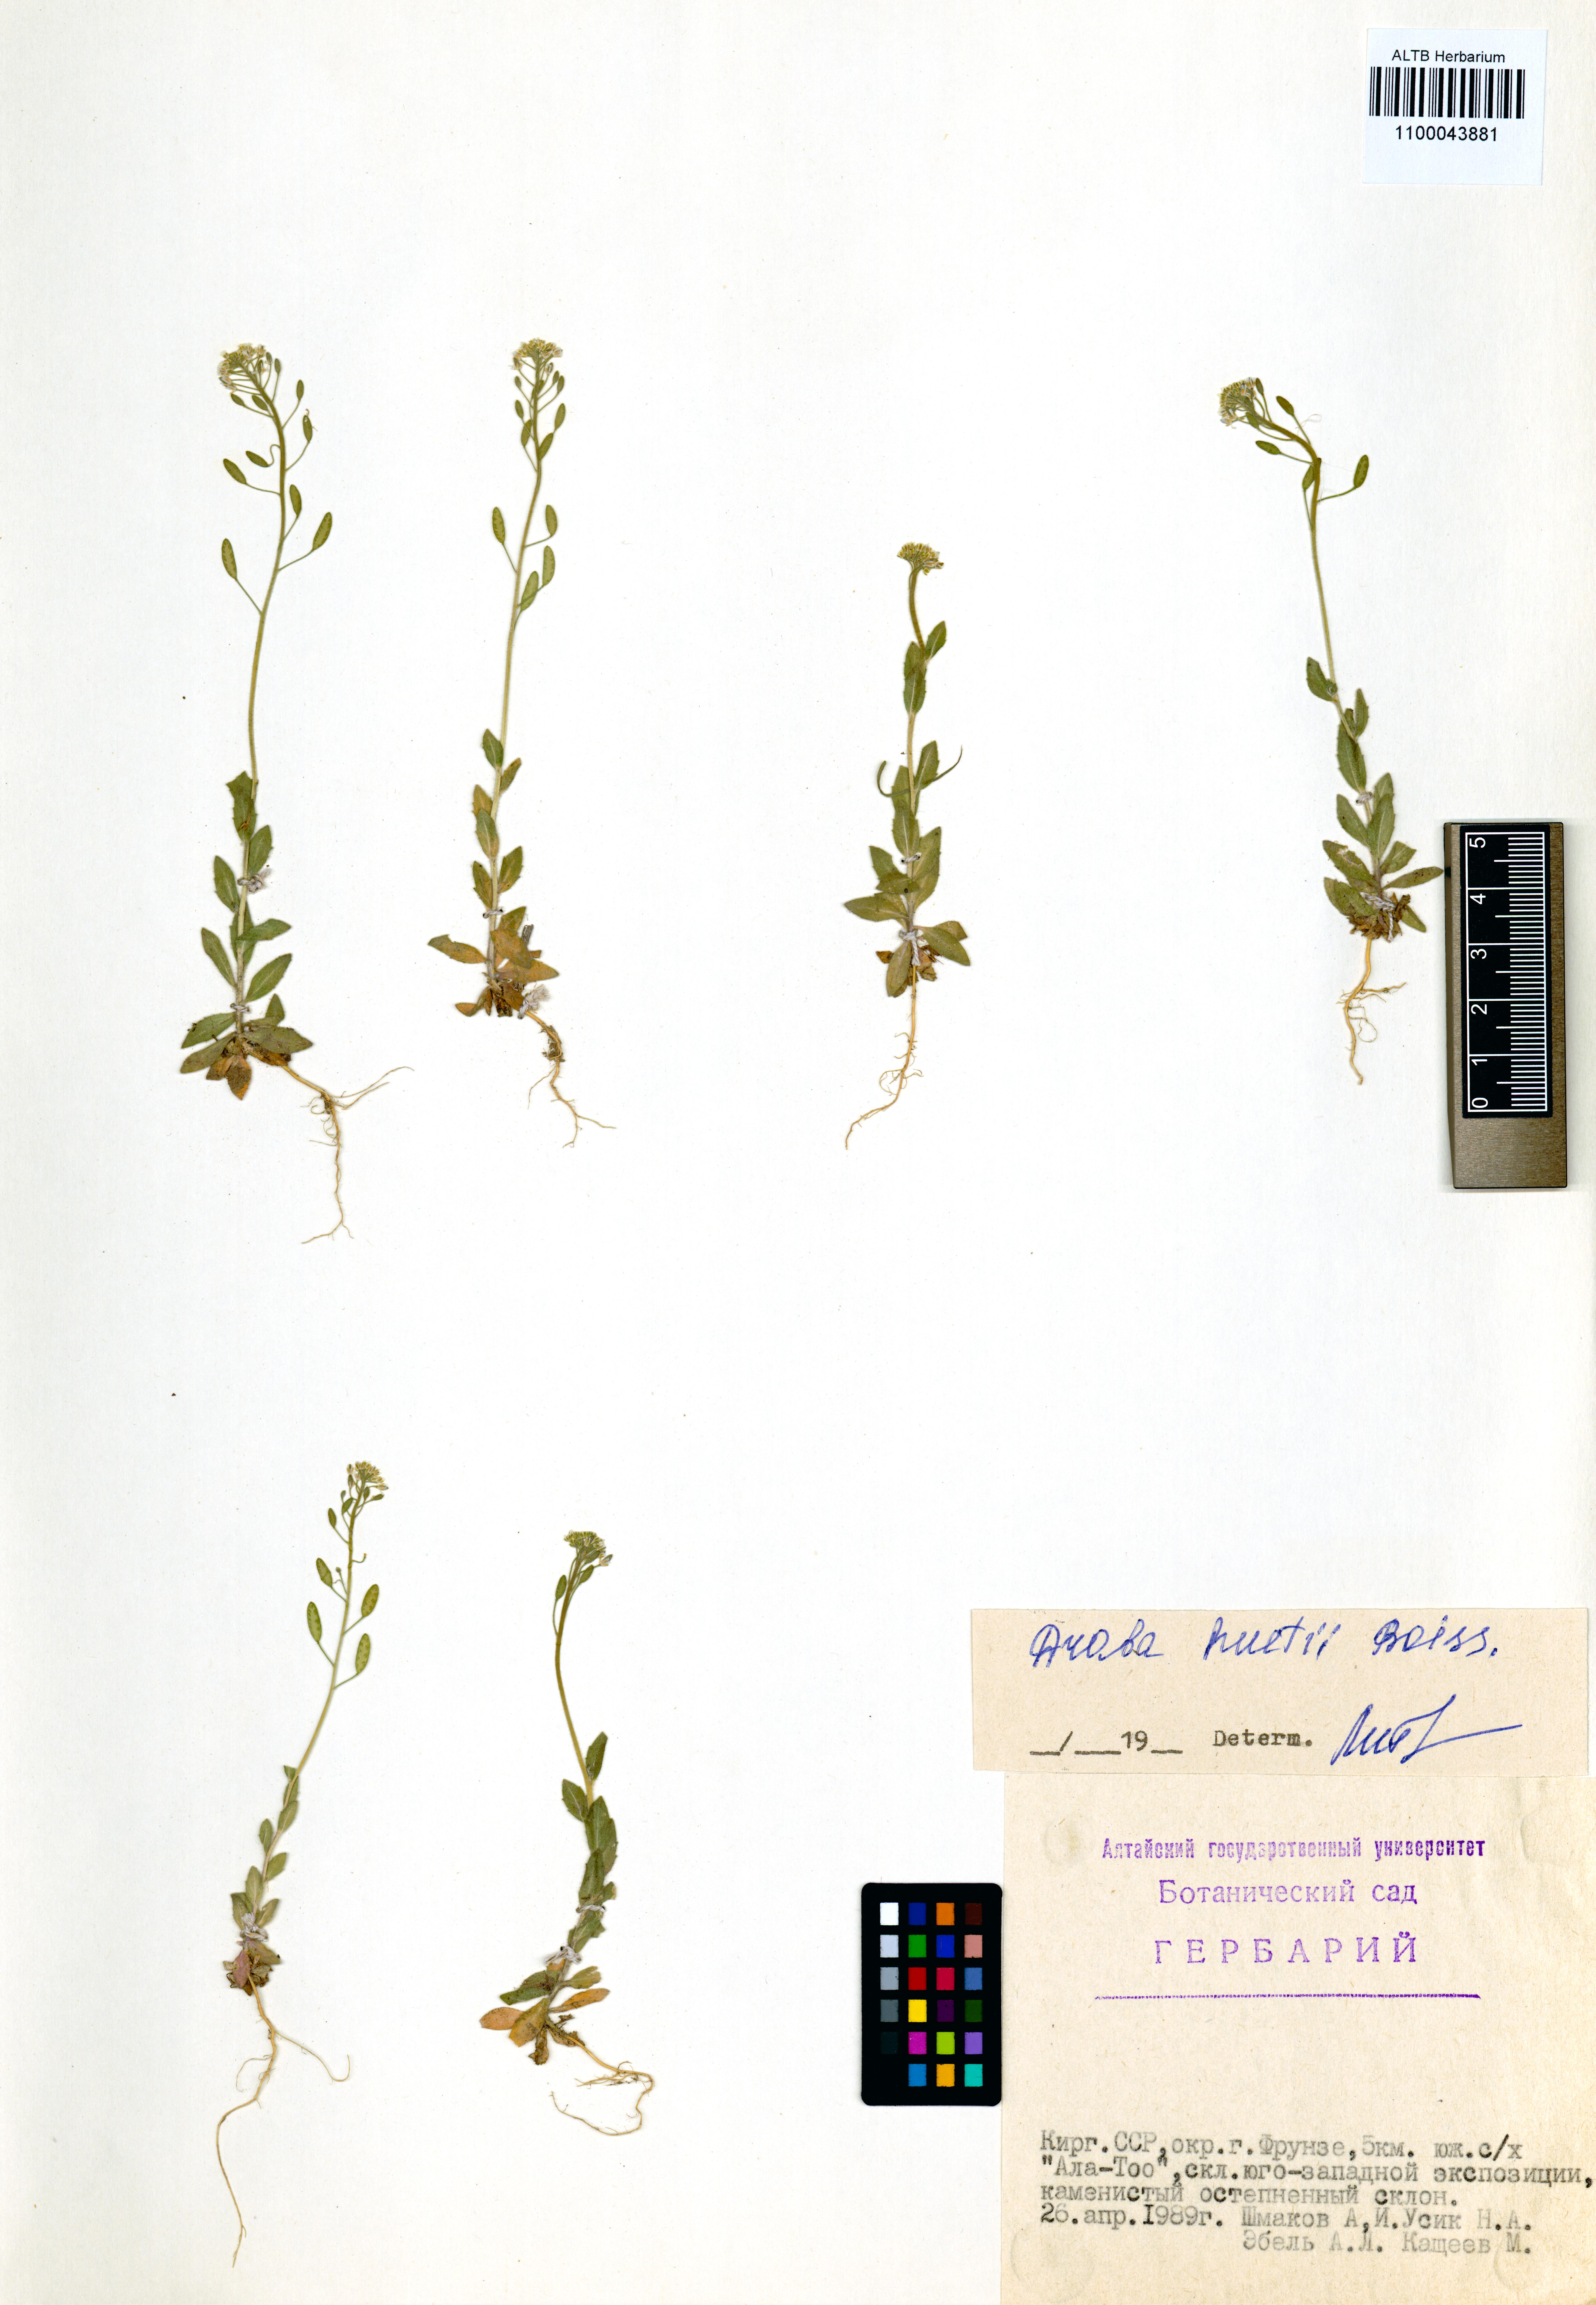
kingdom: Plantae
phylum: Tracheophyta
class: Magnoliopsida
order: Brassicales
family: Brassicaceae
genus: Draba
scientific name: Draba huetii
